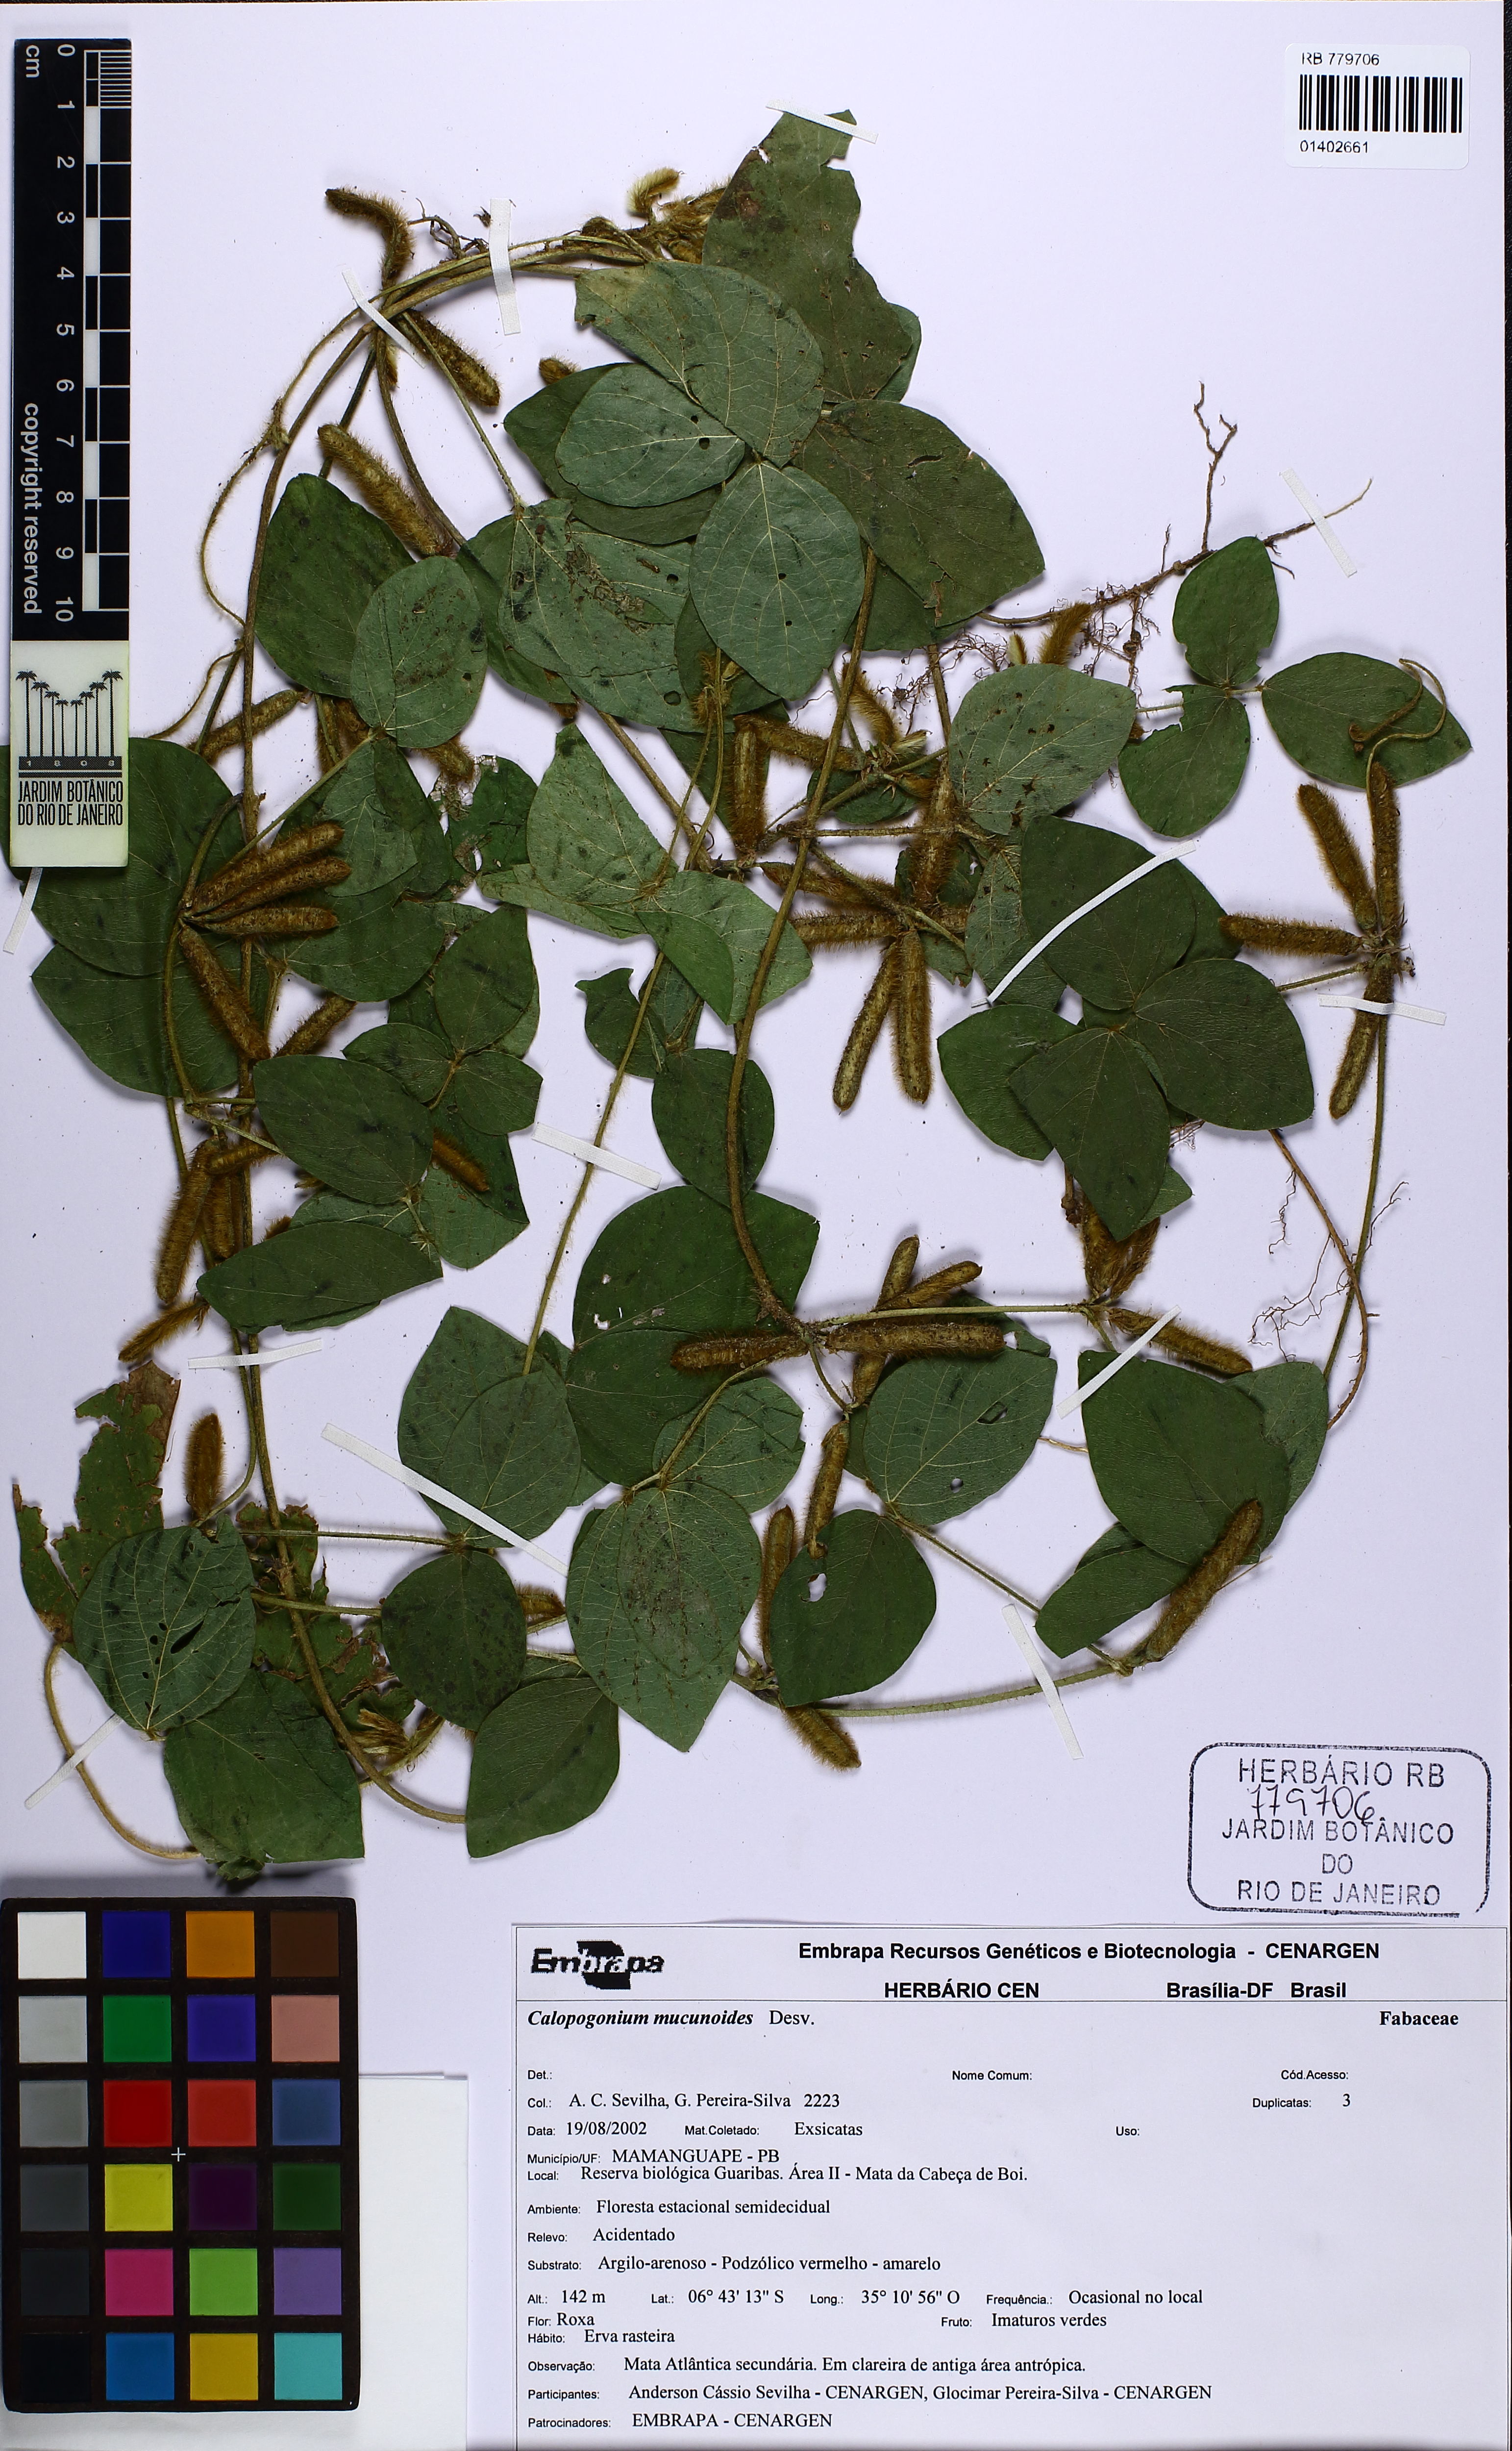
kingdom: Plantae
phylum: Tracheophyta
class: Magnoliopsida
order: Fabales
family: Fabaceae
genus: Calopogonium
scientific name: Calopogonium mucunoides
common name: Calopo
